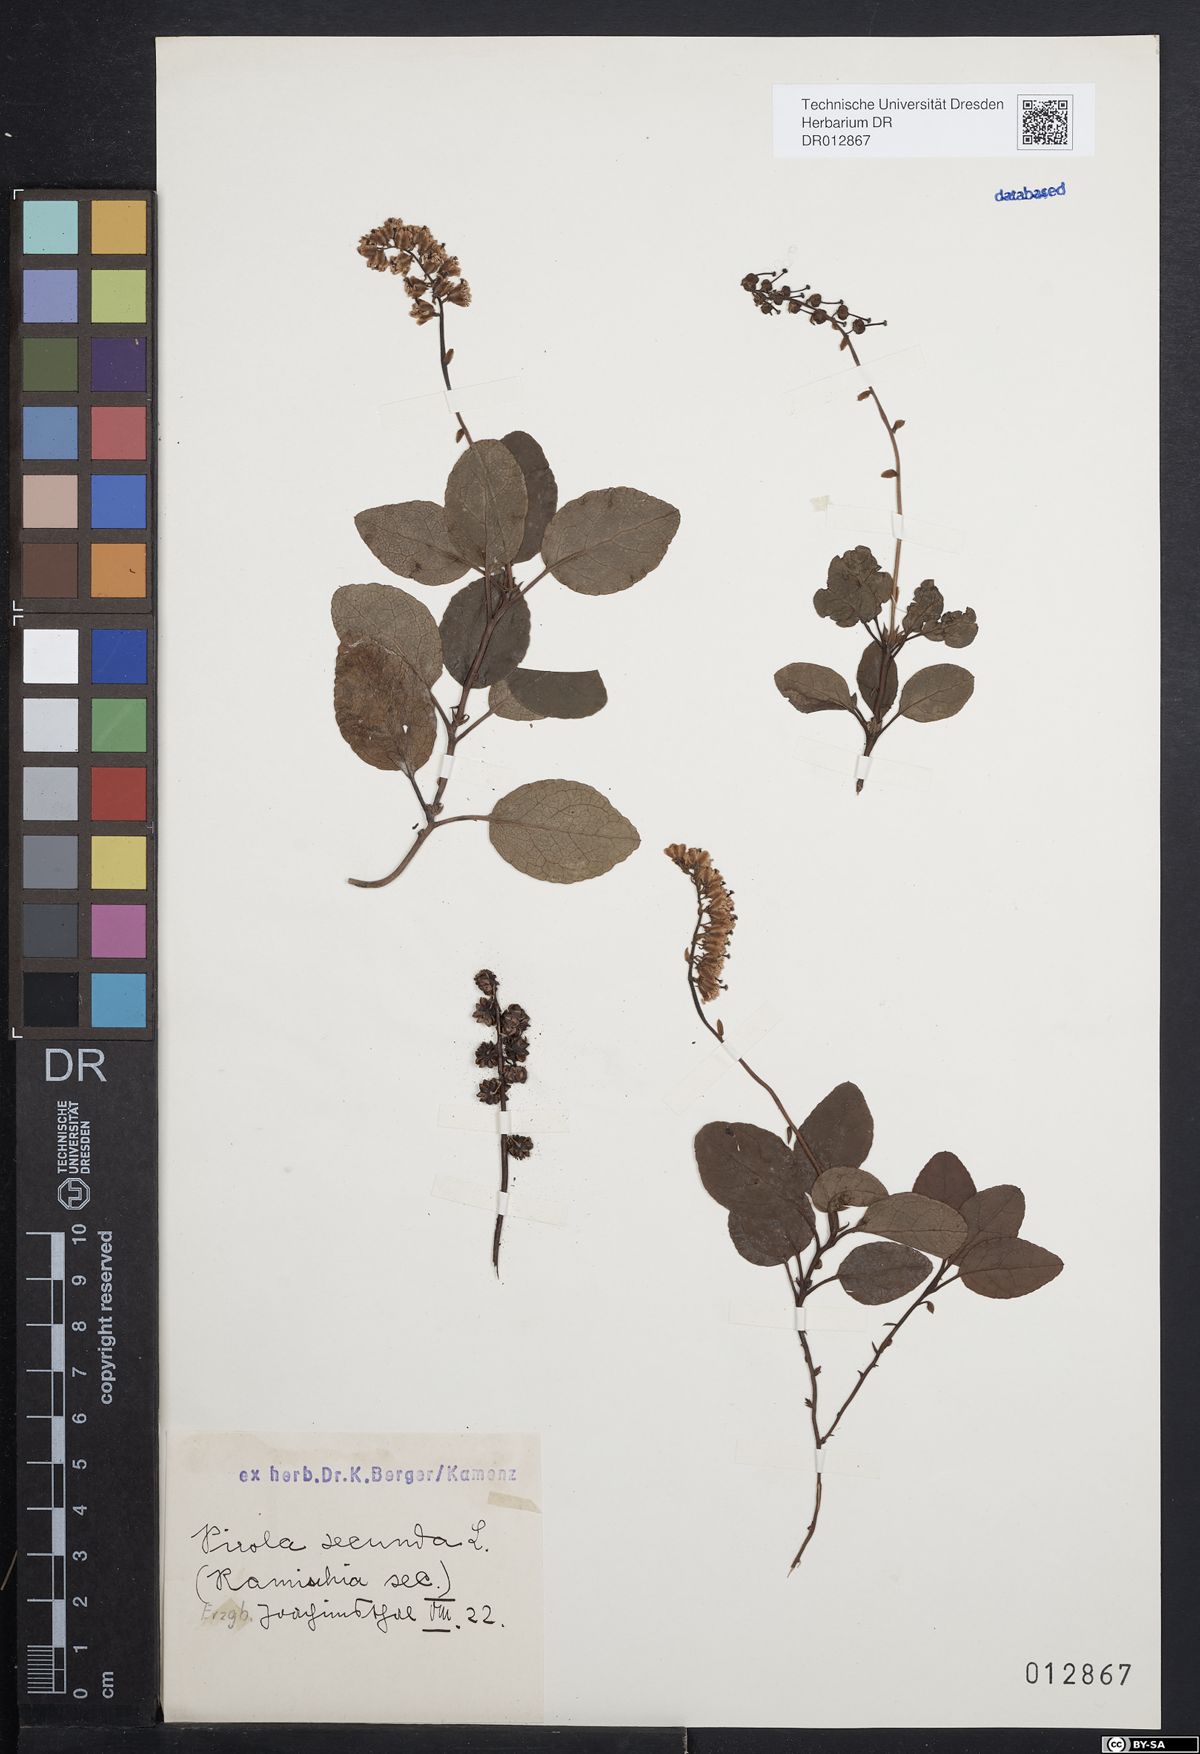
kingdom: Plantae
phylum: Tracheophyta
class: Magnoliopsida
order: Ericales
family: Ericaceae
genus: Orthilia
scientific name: Orthilia secunda
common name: One-sided orthilia
